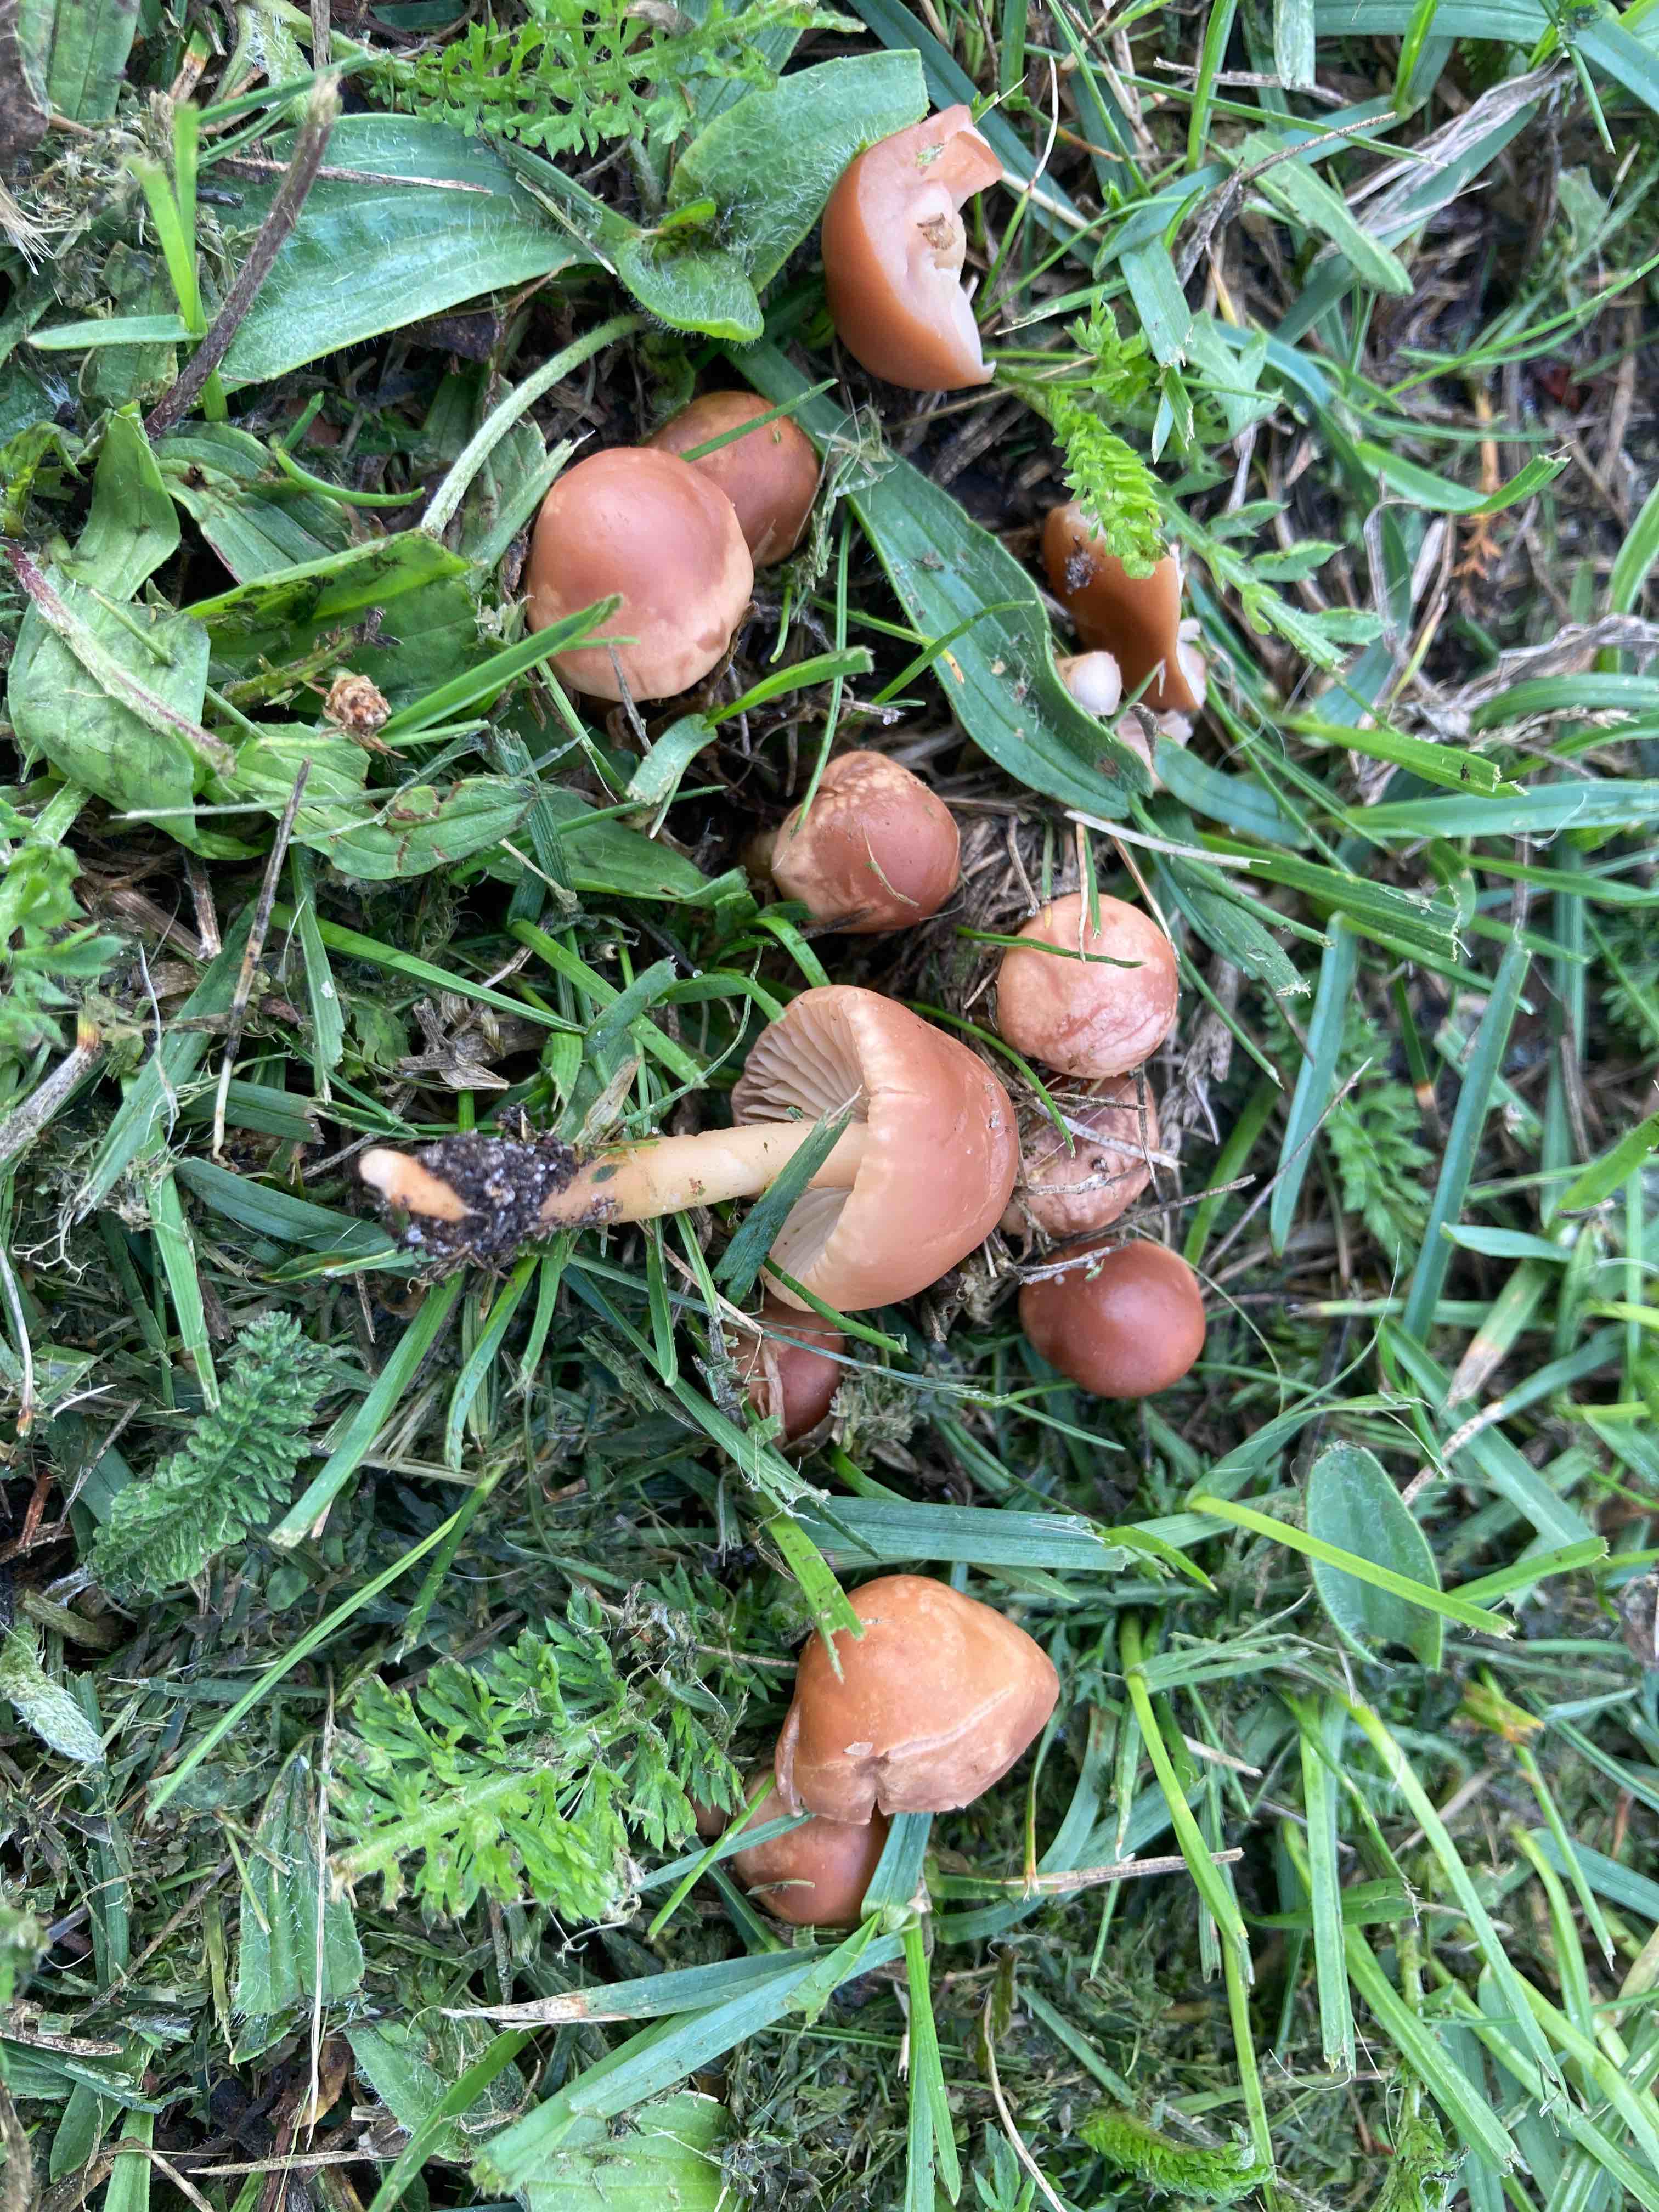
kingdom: Fungi
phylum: Basidiomycota
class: Agaricomycetes
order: Agaricales
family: Marasmiaceae
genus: Marasmius
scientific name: Marasmius oreades
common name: elledans-bruskhat
